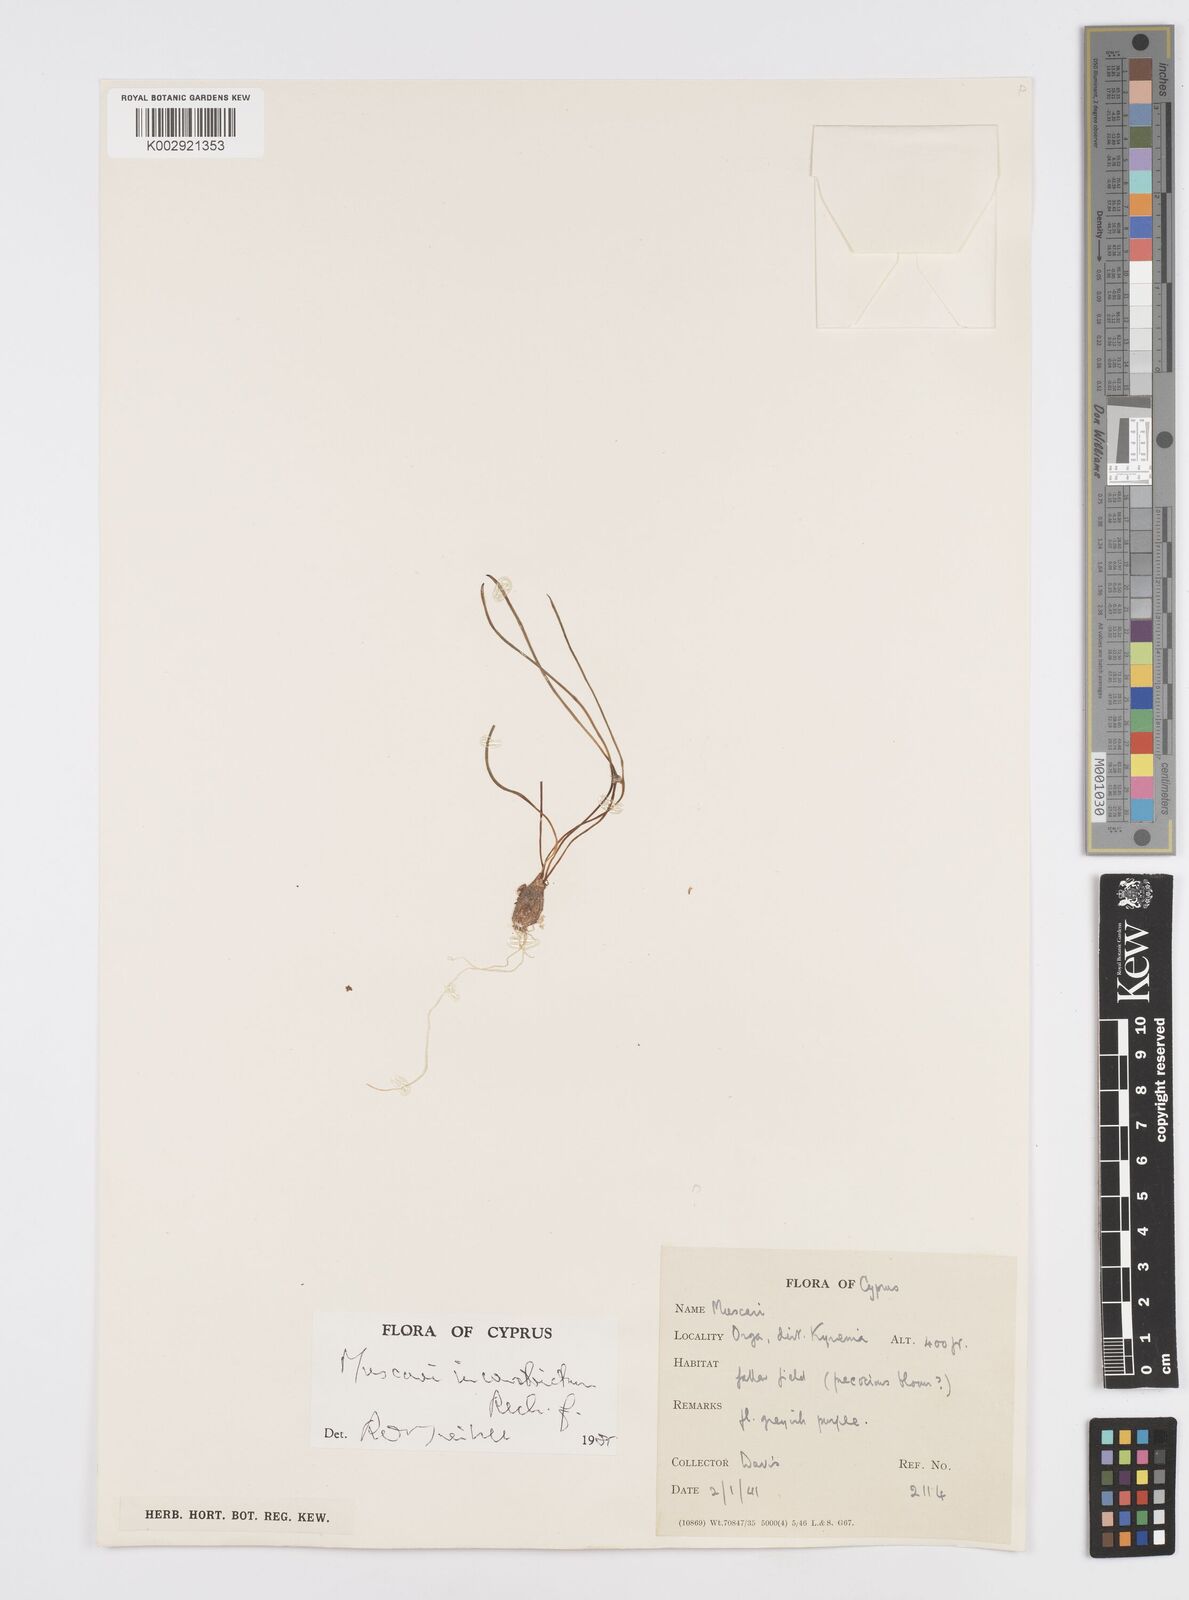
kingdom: Plantae
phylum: Tracheophyta
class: Liliopsida
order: Asparagales
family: Asparagaceae
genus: Muscari
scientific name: Muscari inconstrictum
